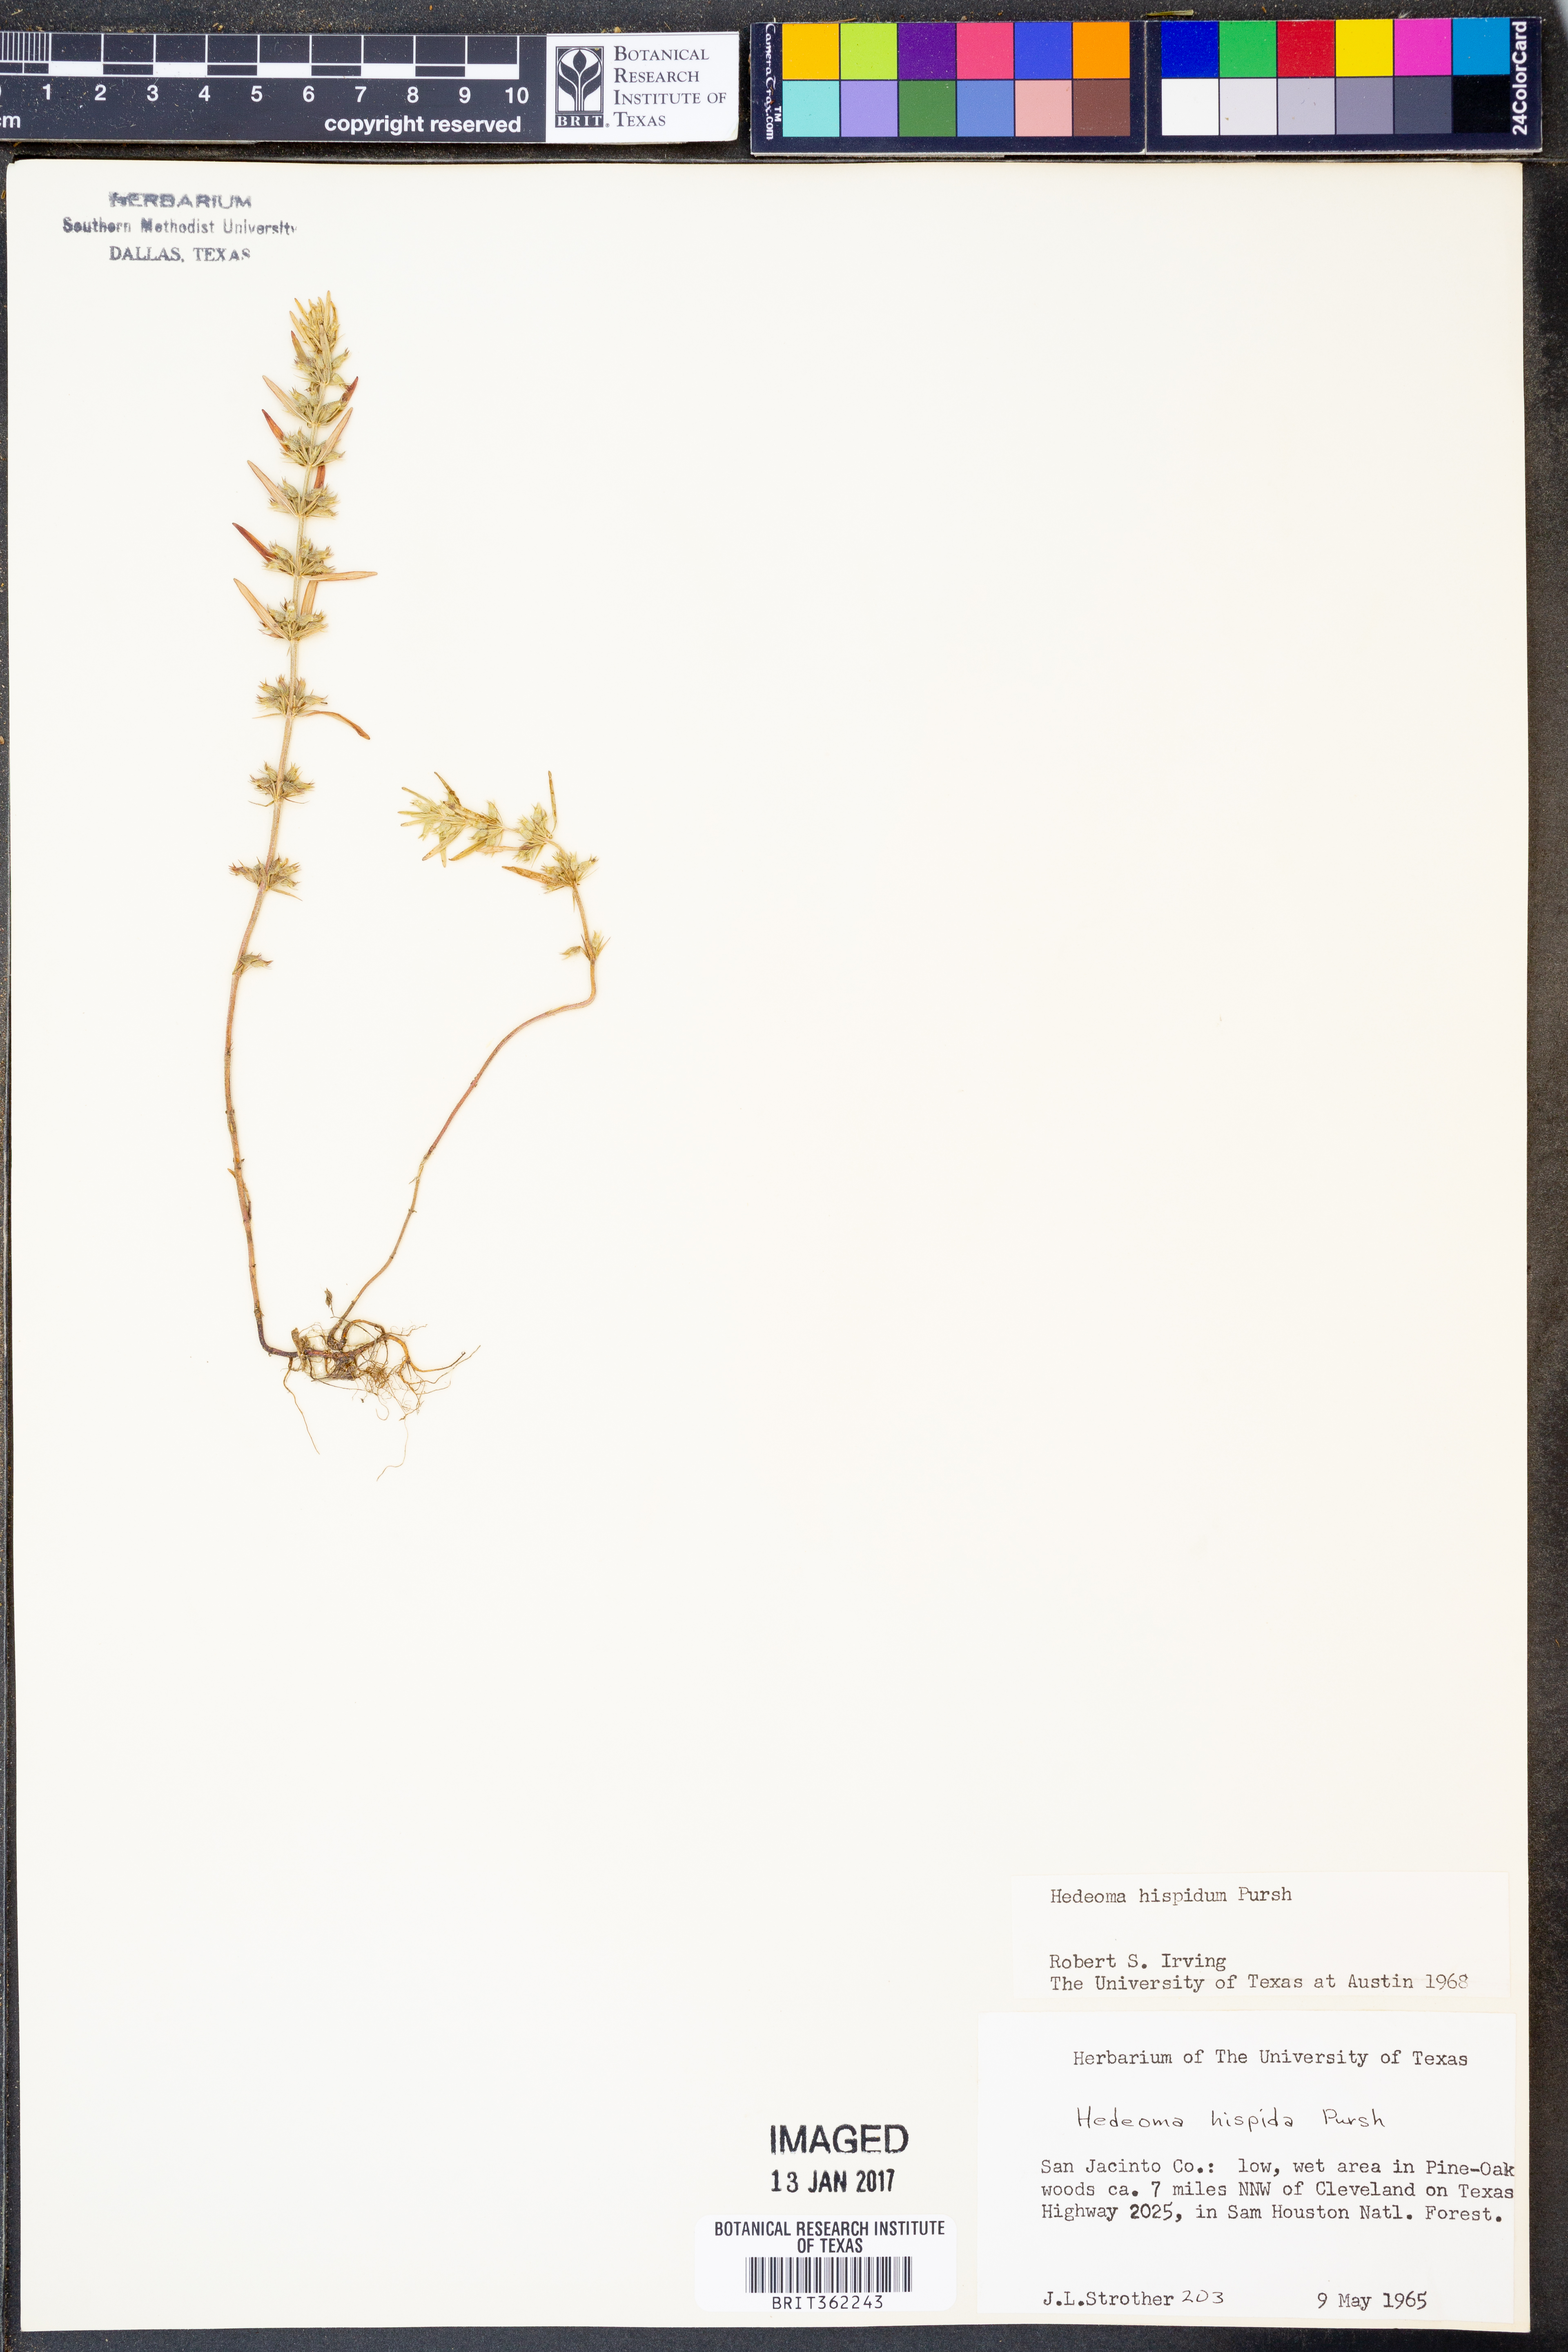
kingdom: Plantae
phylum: Tracheophyta
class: Magnoliopsida
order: Lamiales
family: Lamiaceae
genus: Hedeoma
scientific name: Hedeoma hispida
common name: Mock pennyroyal
